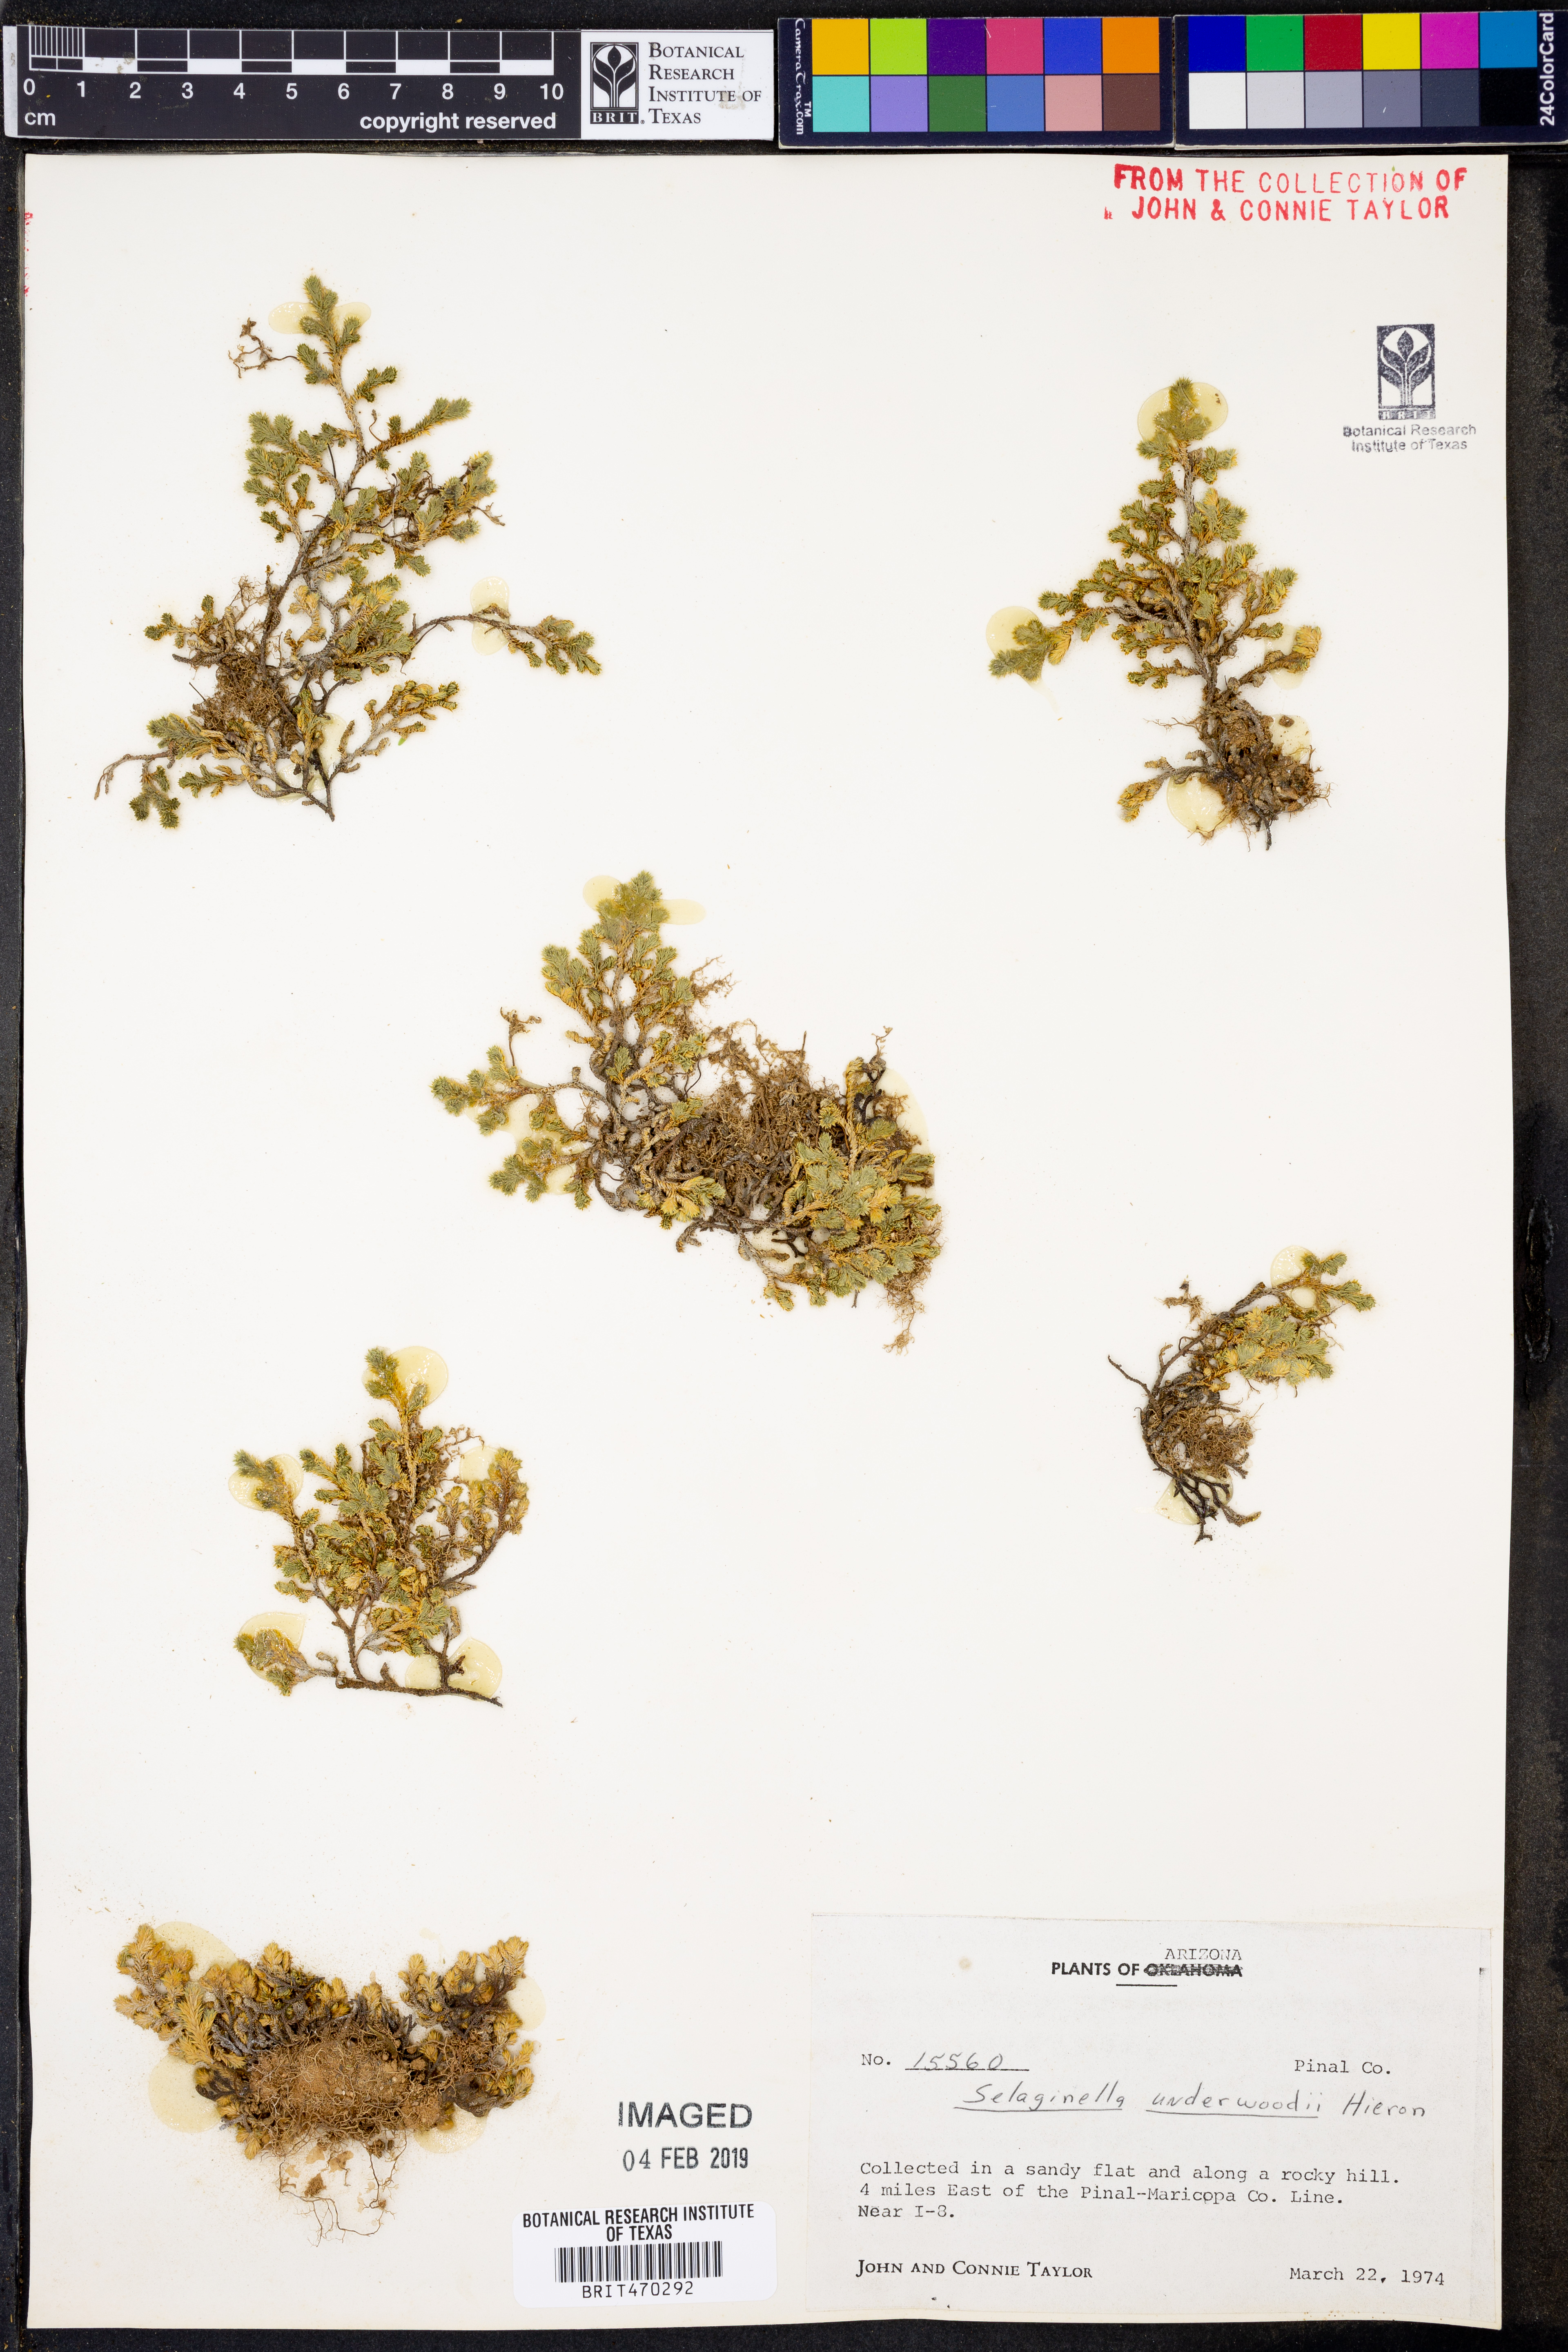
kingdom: Plantae
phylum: Tracheophyta
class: Lycopodiopsida
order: Selaginellales
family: Selaginellaceae
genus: Selaginella
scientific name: Selaginella underwoodii
